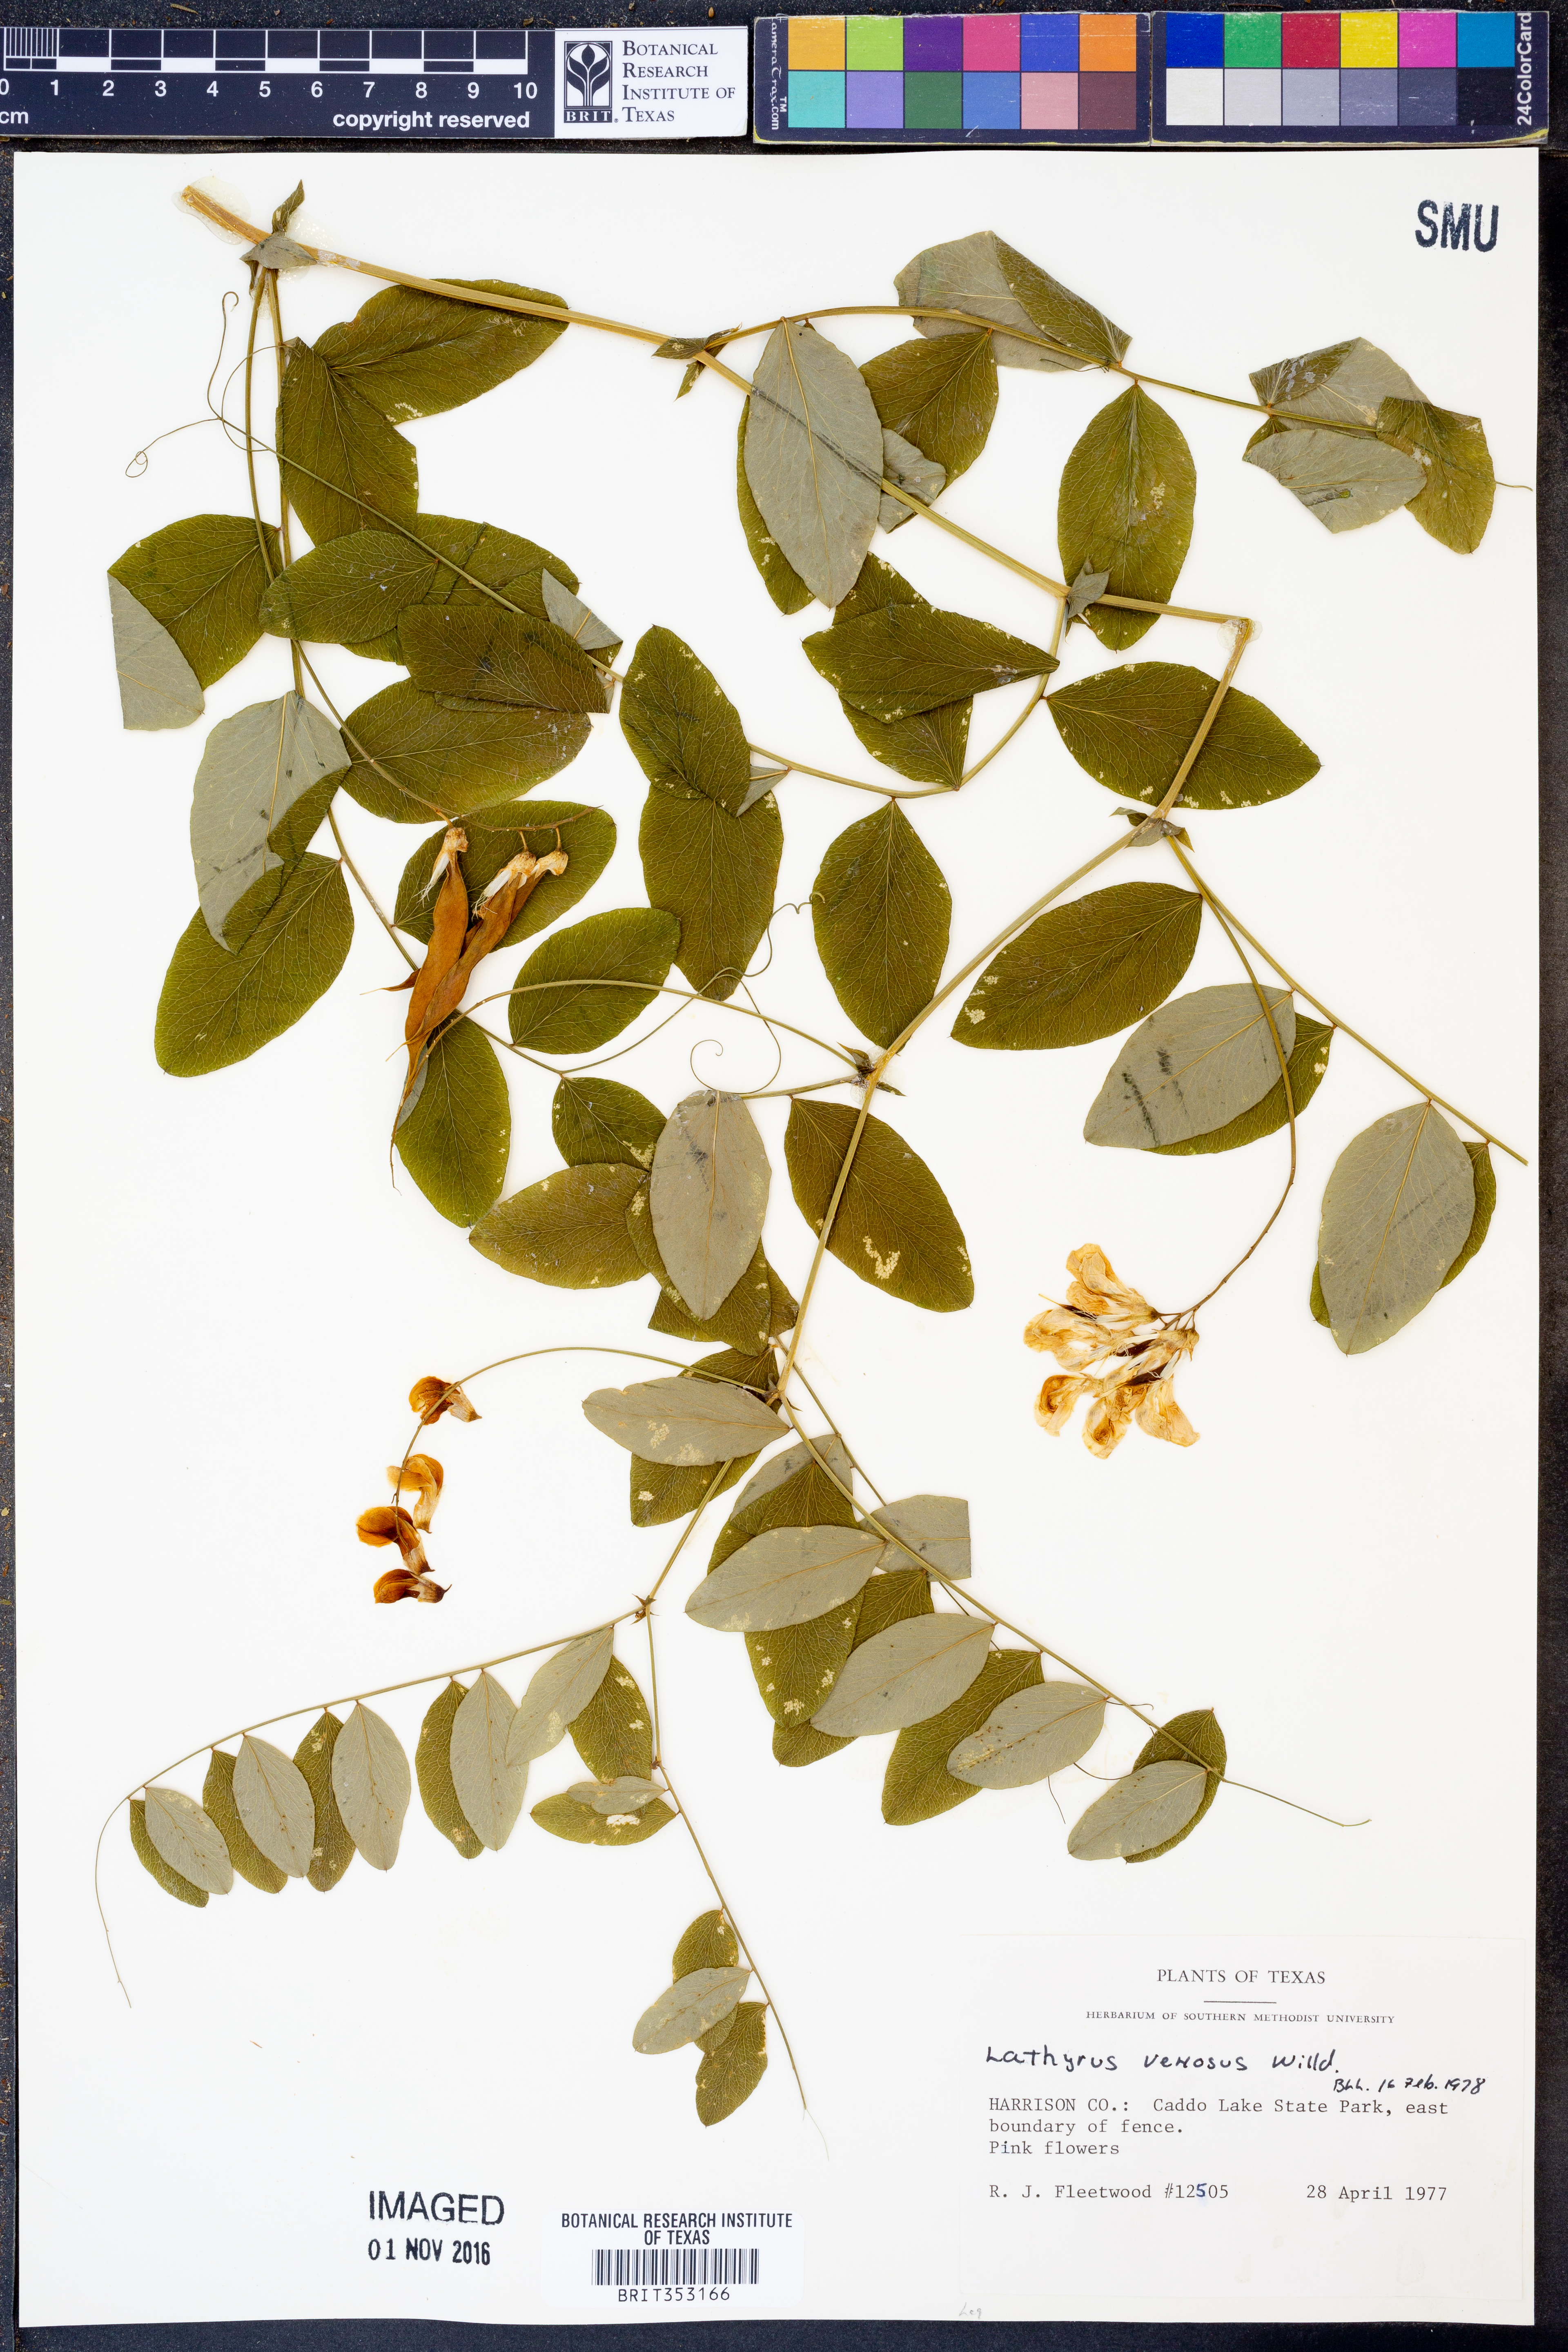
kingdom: Plantae
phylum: Tracheophyta
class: Magnoliopsida
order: Fabales
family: Fabaceae
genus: Lathyrus
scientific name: Lathyrus venosus
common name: Forest-pea
